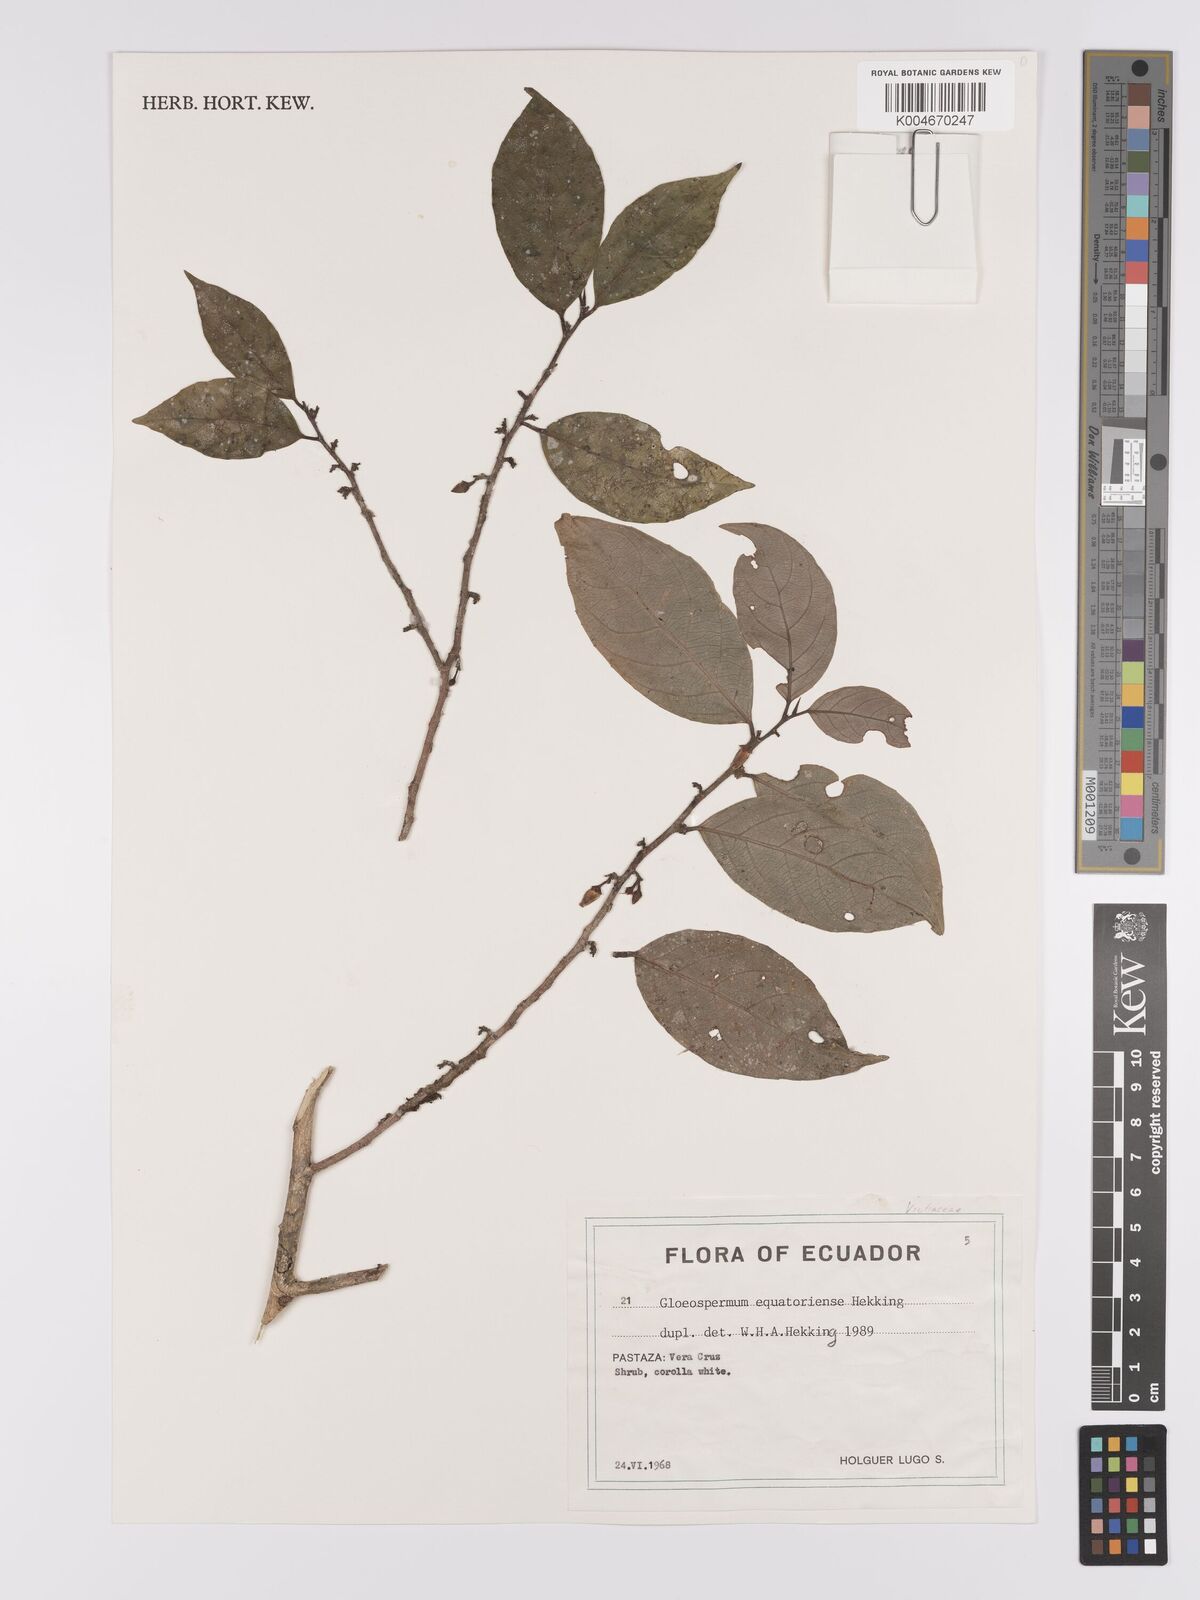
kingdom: Plantae
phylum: Tracheophyta
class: Magnoliopsida
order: Malpighiales
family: Violaceae
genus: Gloeospermum
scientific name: Gloeospermum equatoriense
